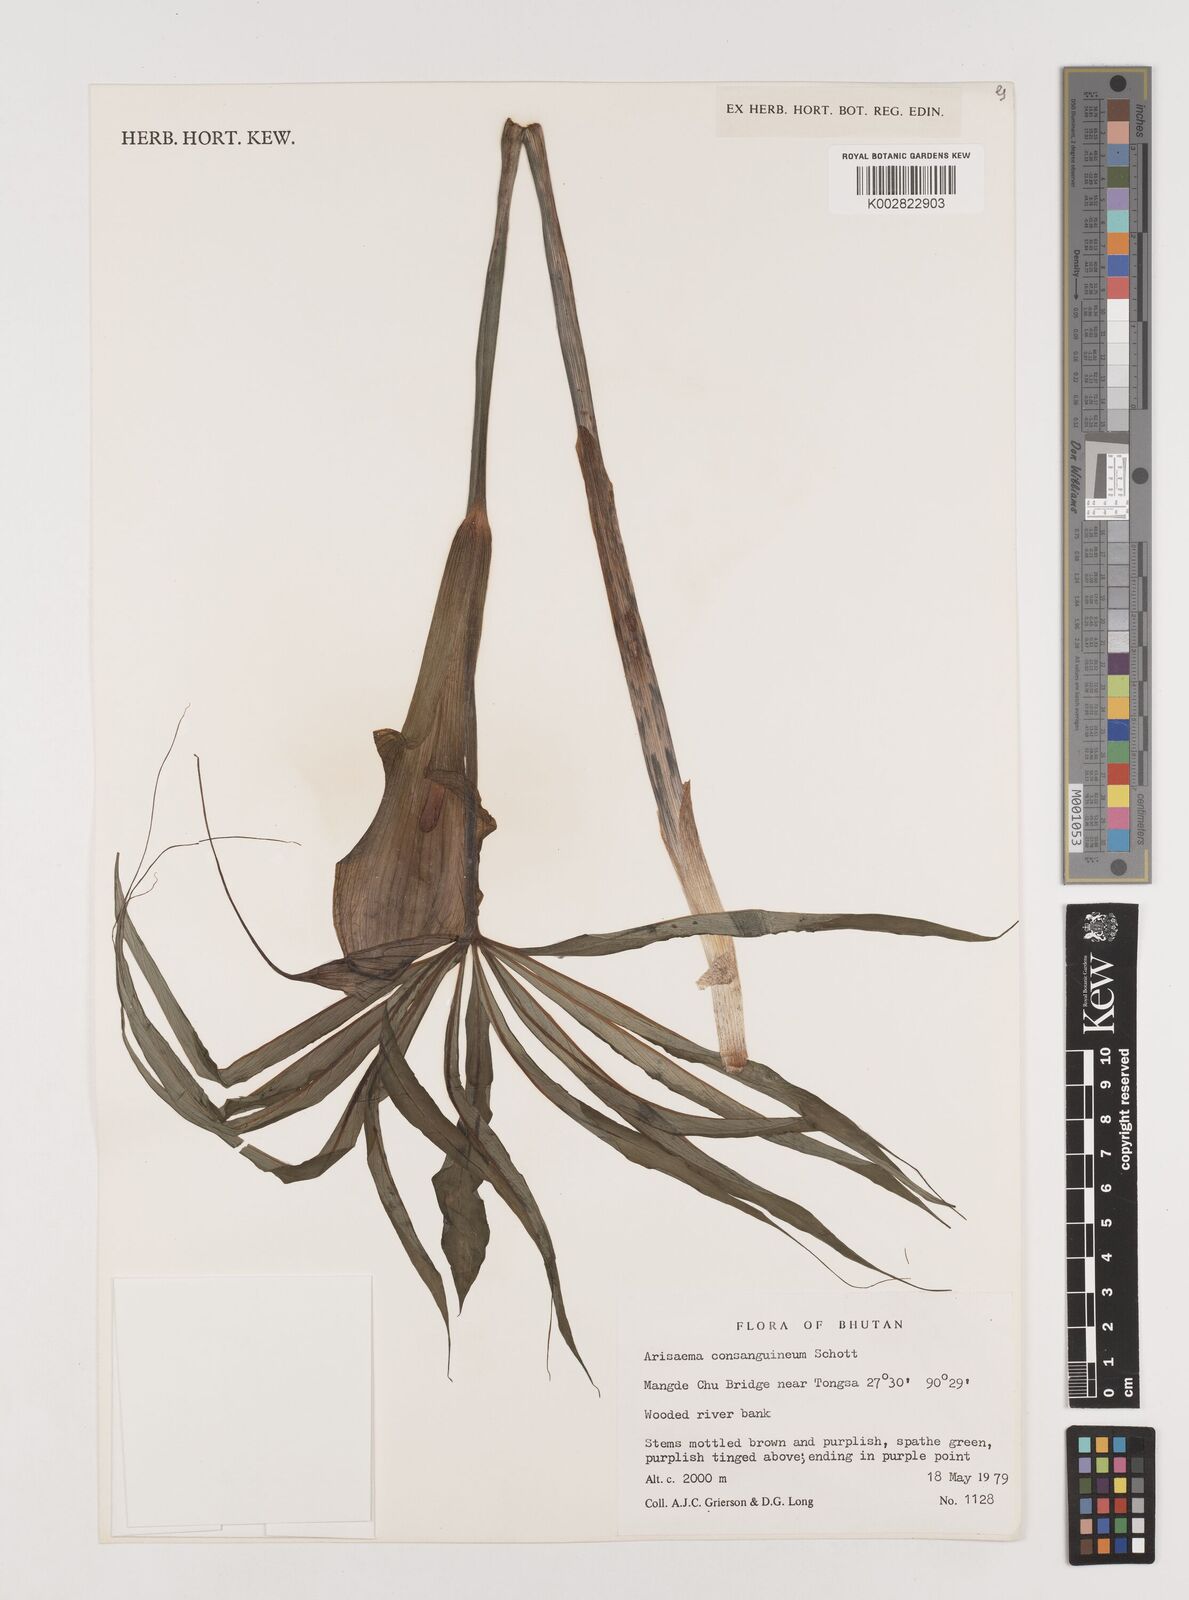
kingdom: Plantae
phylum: Tracheophyta
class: Liliopsida
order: Alismatales
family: Araceae
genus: Arisaema
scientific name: Arisaema erubescens
